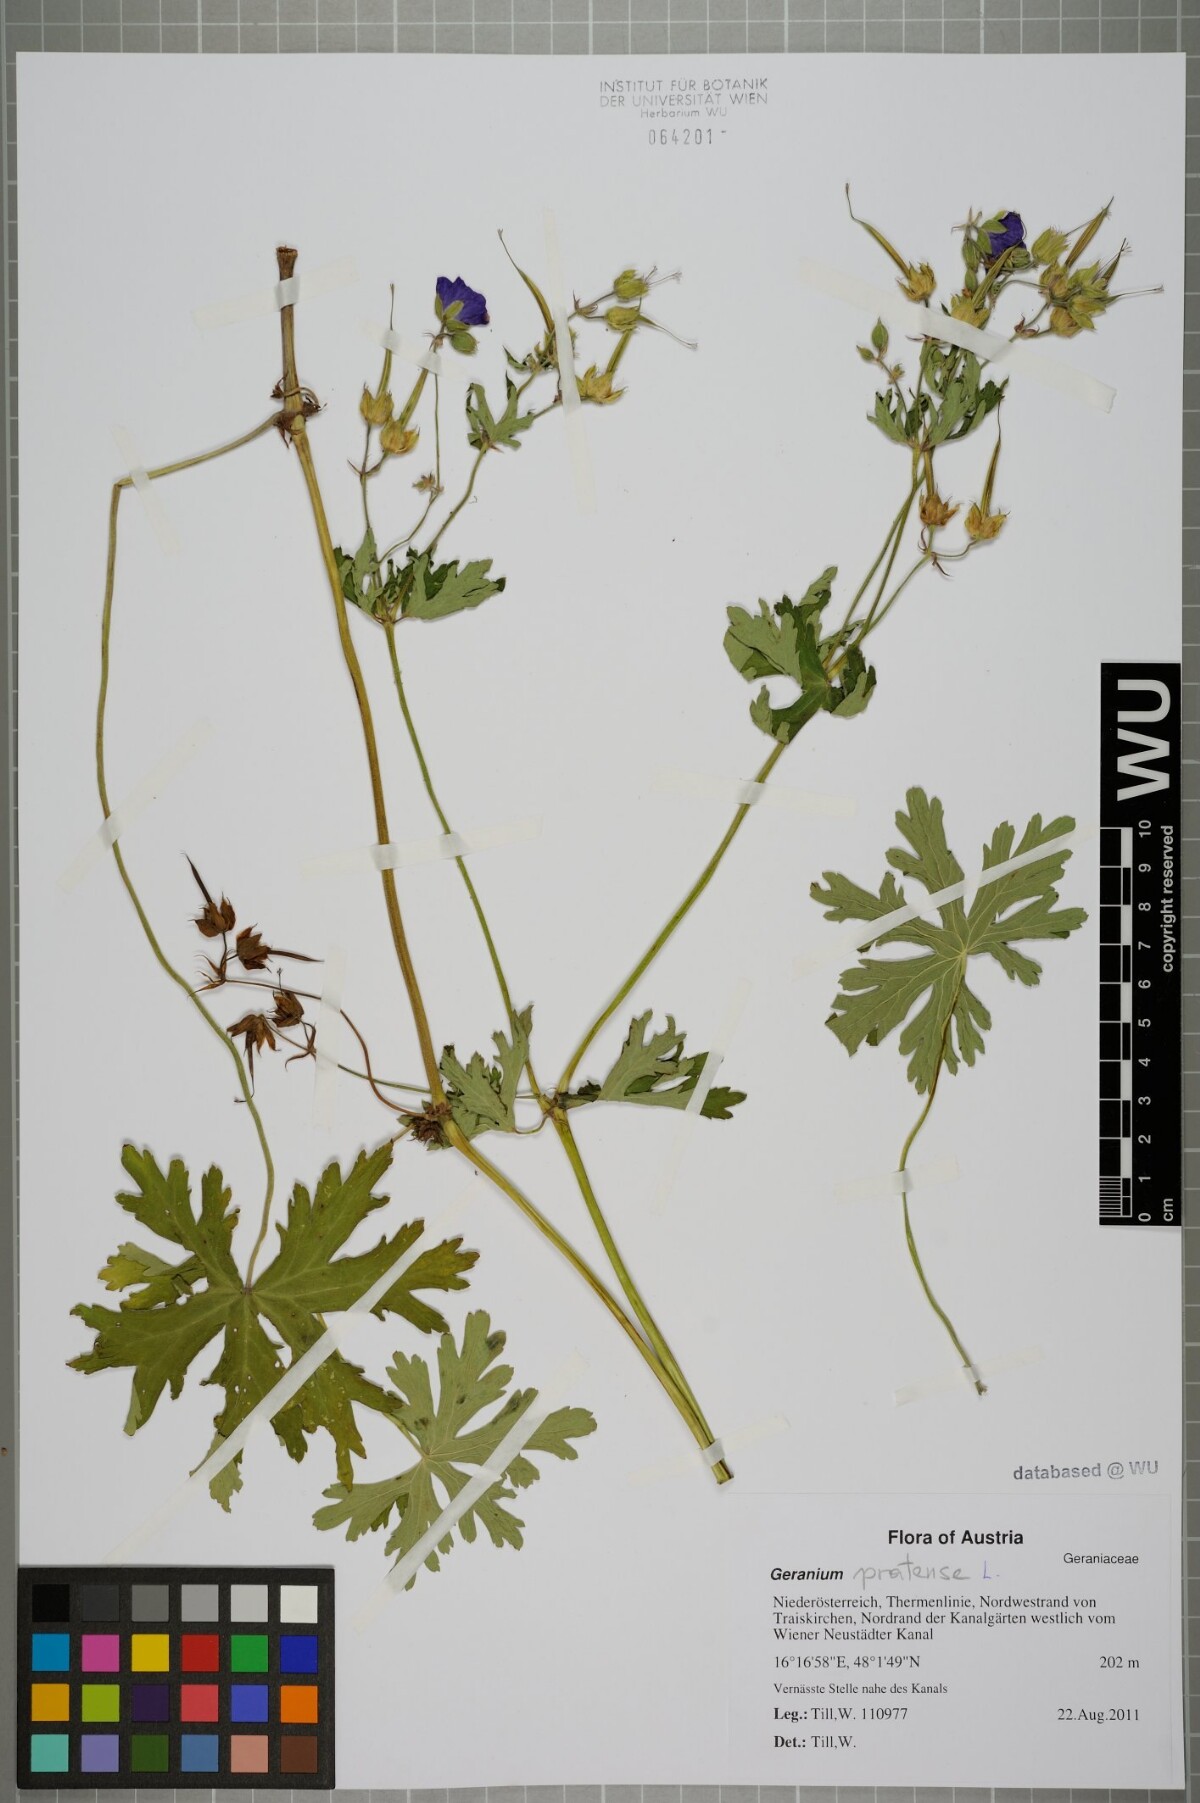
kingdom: Plantae
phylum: Tracheophyta
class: Magnoliopsida
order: Geraniales
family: Geraniaceae
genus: Geranium
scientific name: Geranium pratense
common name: Meadow crane's-bill
